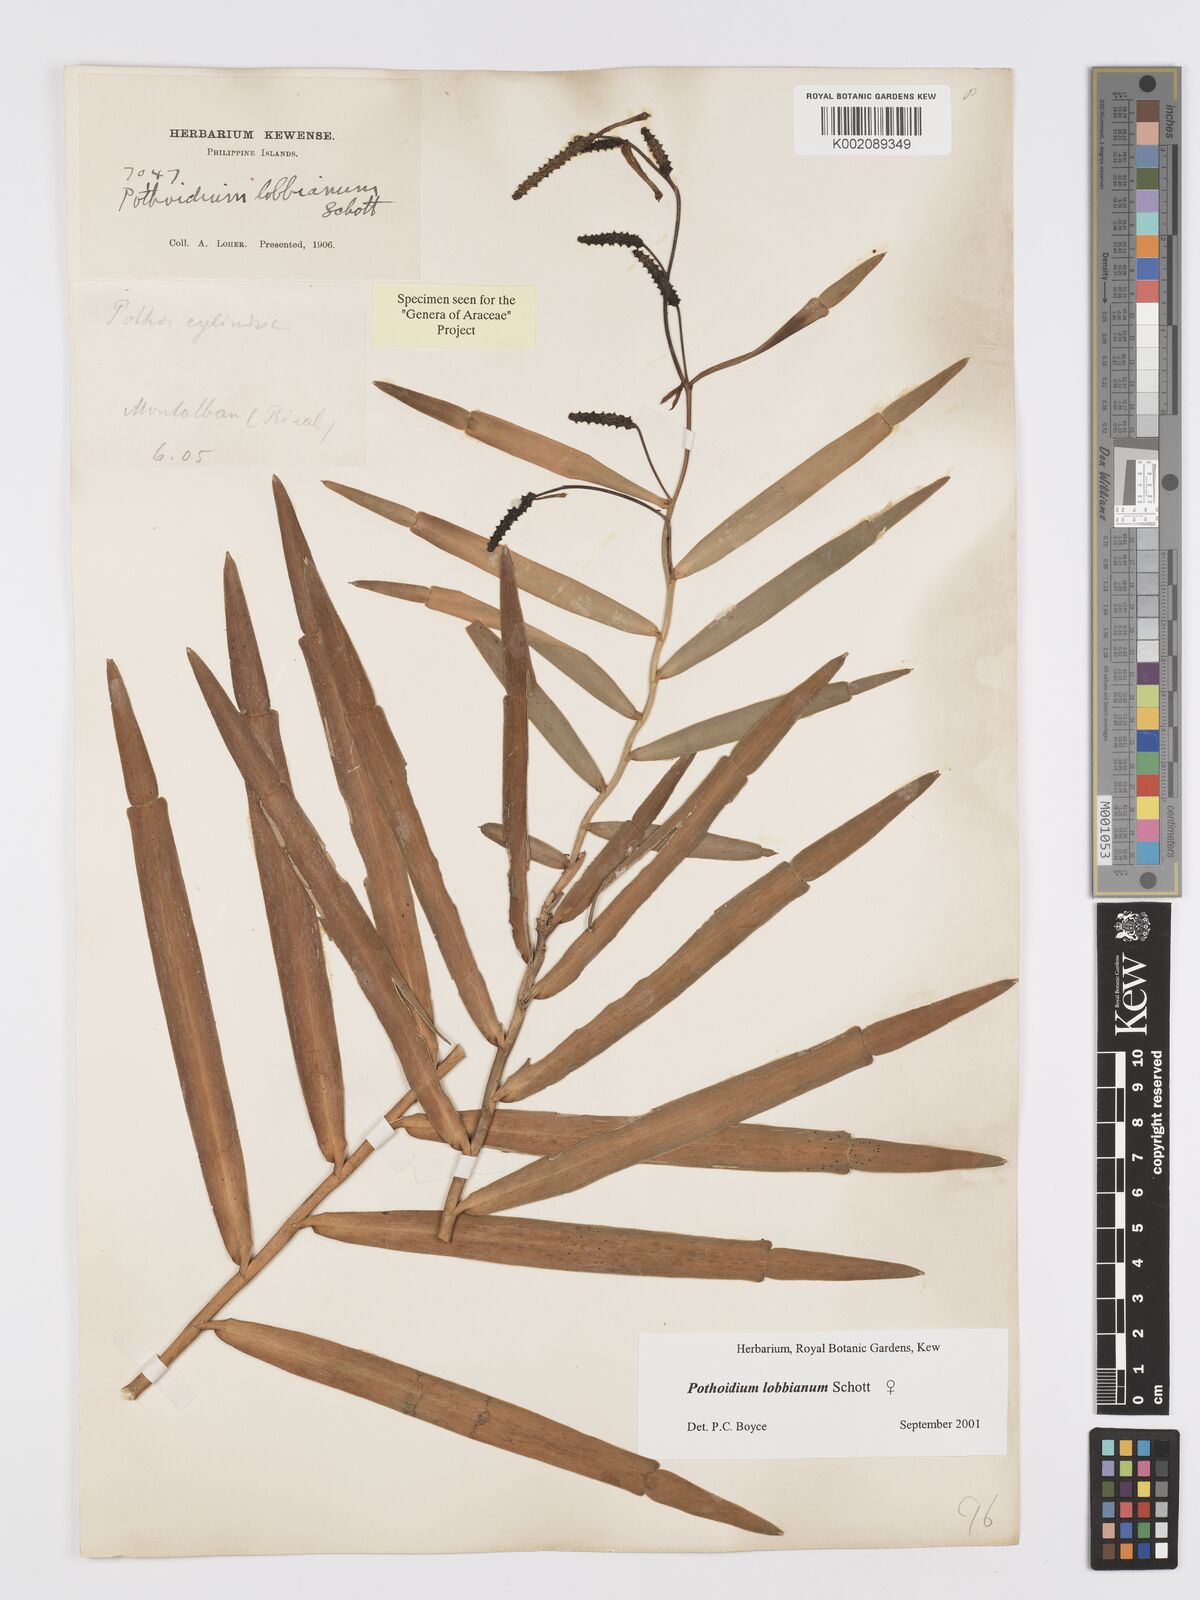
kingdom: Plantae
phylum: Tracheophyta
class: Liliopsida
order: Alismatales
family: Araceae
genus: Pothoidium
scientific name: Pothoidium lobbianum
